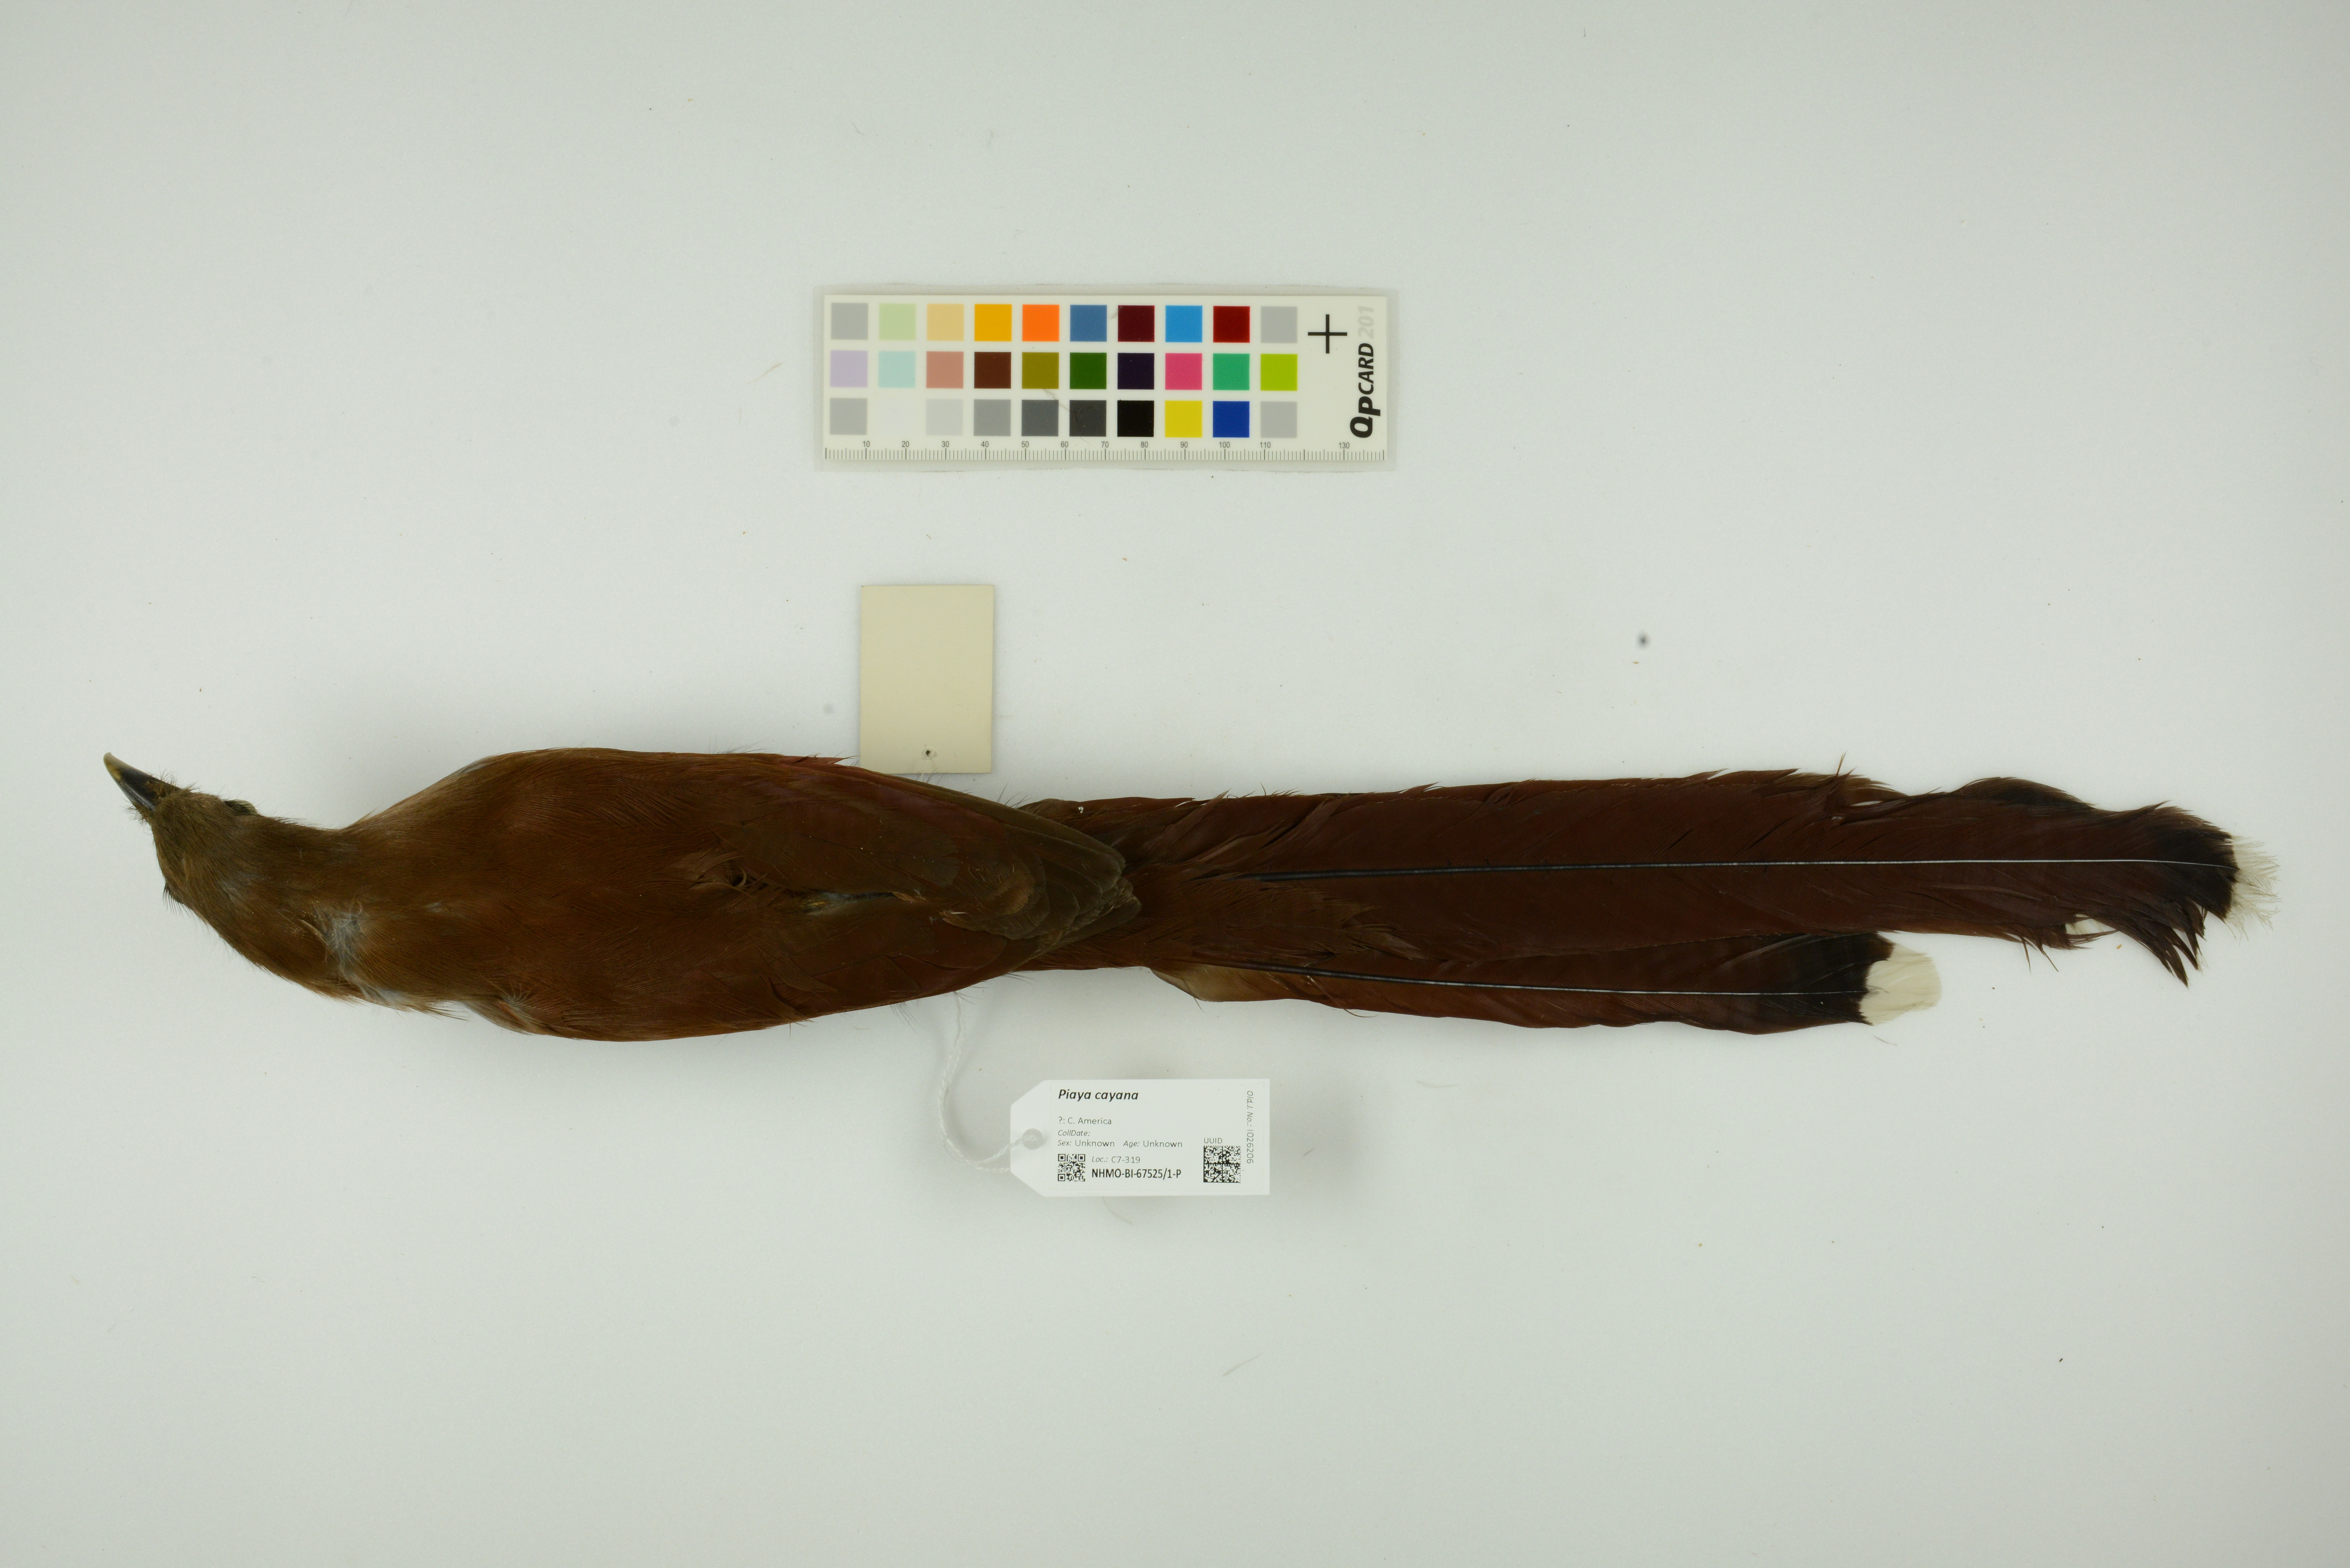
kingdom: Animalia
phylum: Chordata
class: Aves
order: Cuculiformes
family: Cuculidae
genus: Piaya
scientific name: Piaya cayana
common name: Squirrel cuckoo
